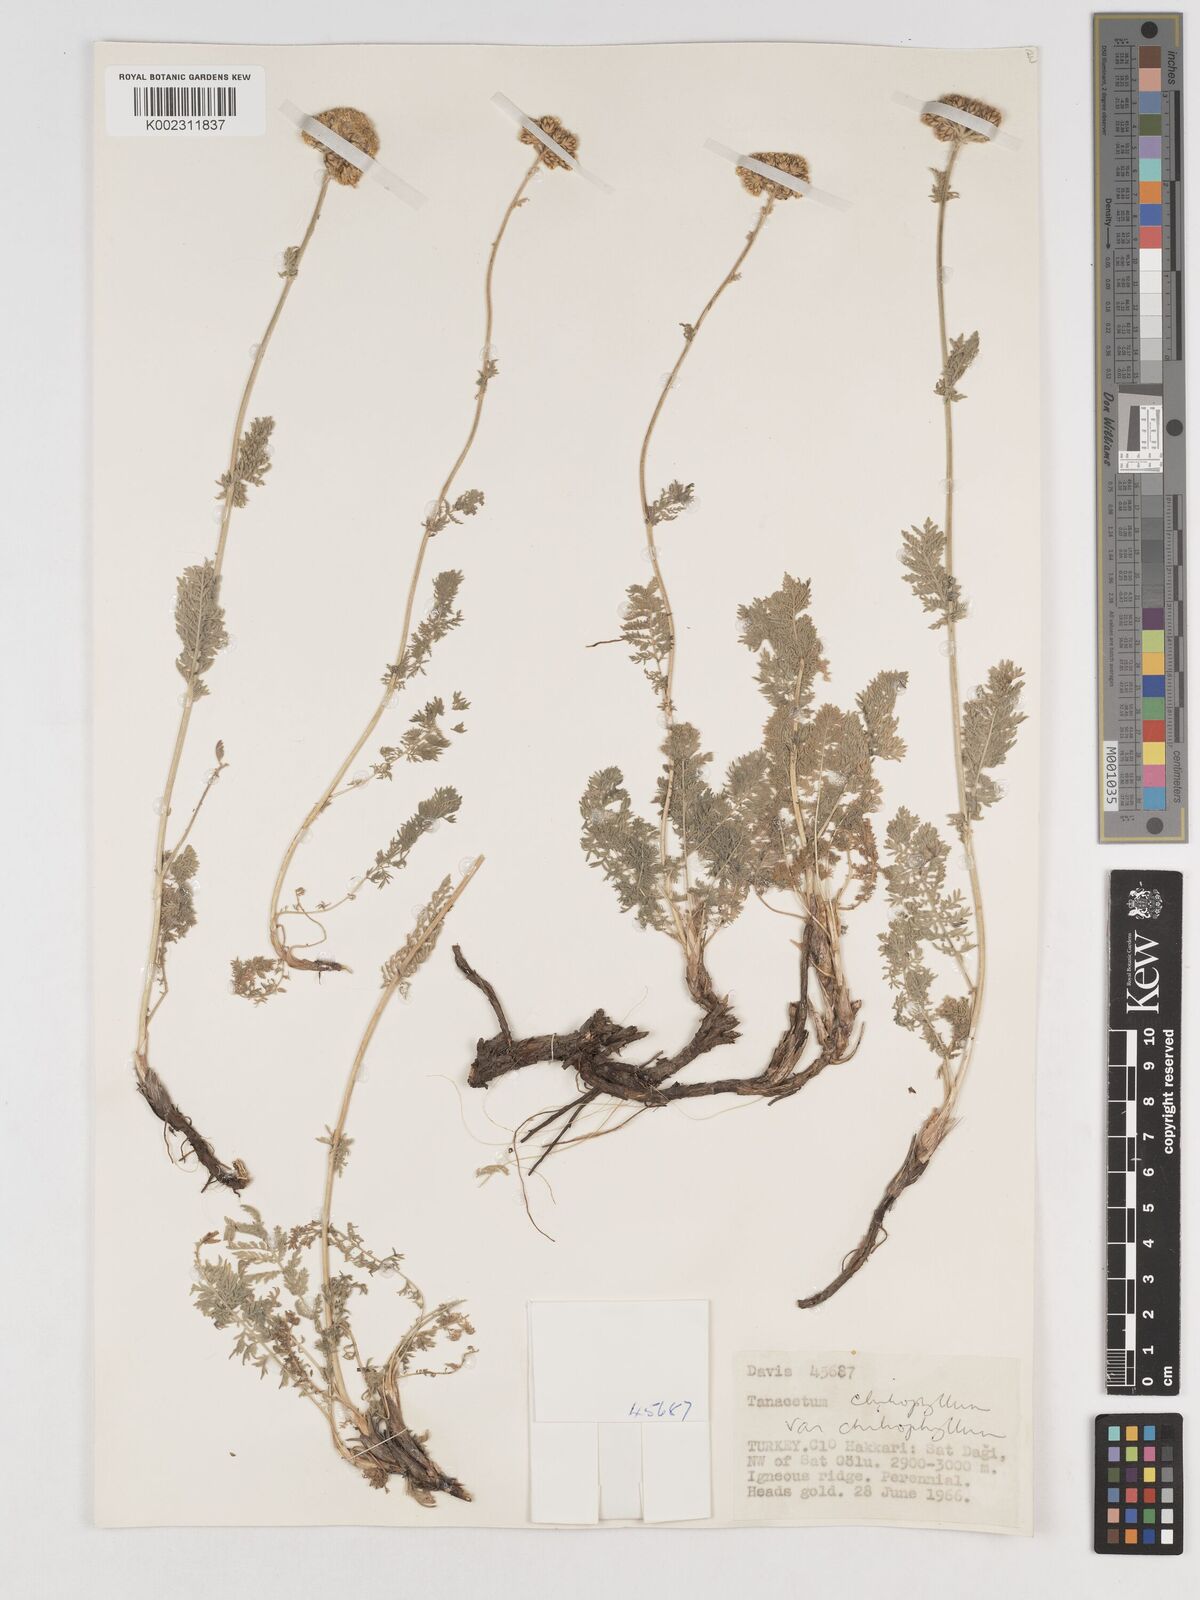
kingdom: Plantae
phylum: Tracheophyta
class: Magnoliopsida
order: Asterales
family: Asteraceae
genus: Tanacetum
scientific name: Tanacetum aureum
